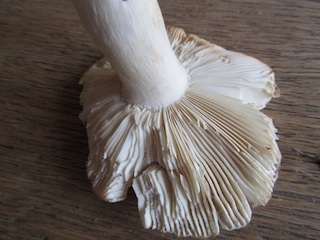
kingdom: Fungi
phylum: Basidiomycota
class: Agaricomycetes
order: Russulales
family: Russulaceae
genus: Russula
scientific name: Russula ionochlora
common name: violetgrøn skørhat
